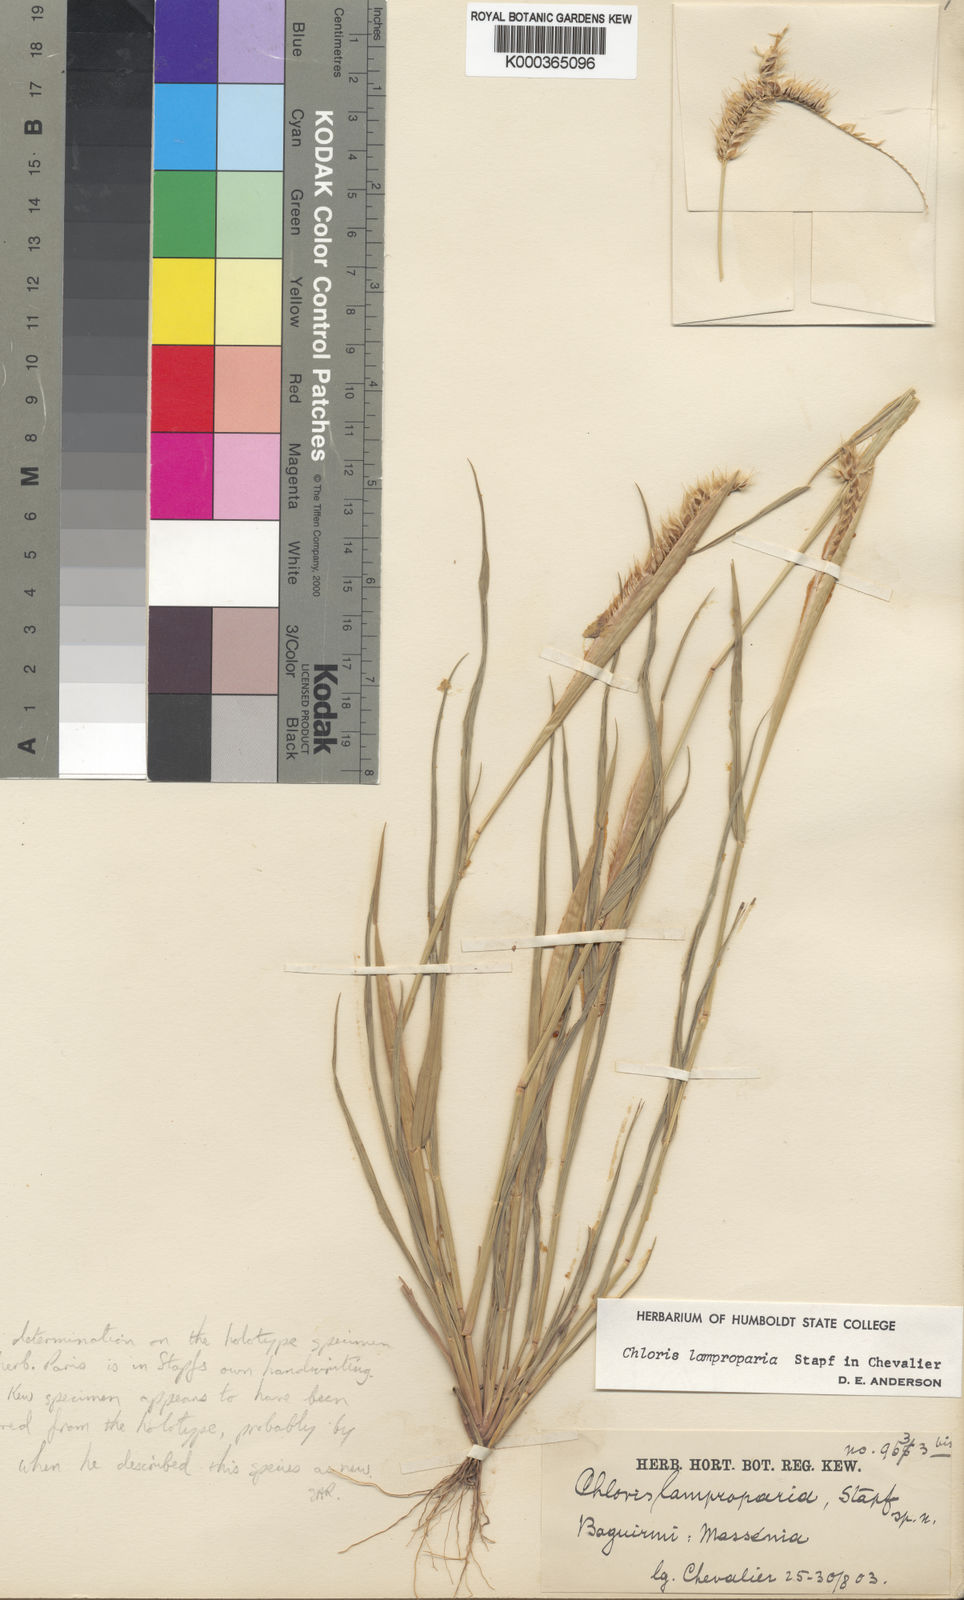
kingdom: Plantae
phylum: Tracheophyta
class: Liliopsida
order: Poales
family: Poaceae
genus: Stapfochloa
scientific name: Stapfochloa lamproparia
